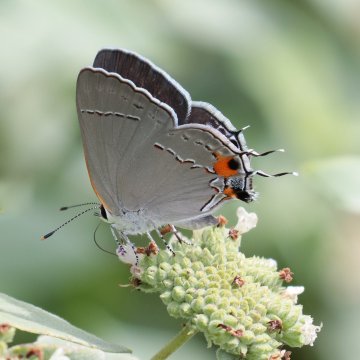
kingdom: Animalia
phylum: Arthropoda
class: Insecta
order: Lepidoptera
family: Lycaenidae
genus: Strymon
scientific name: Strymon melinus
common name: Gray Hairstreak
